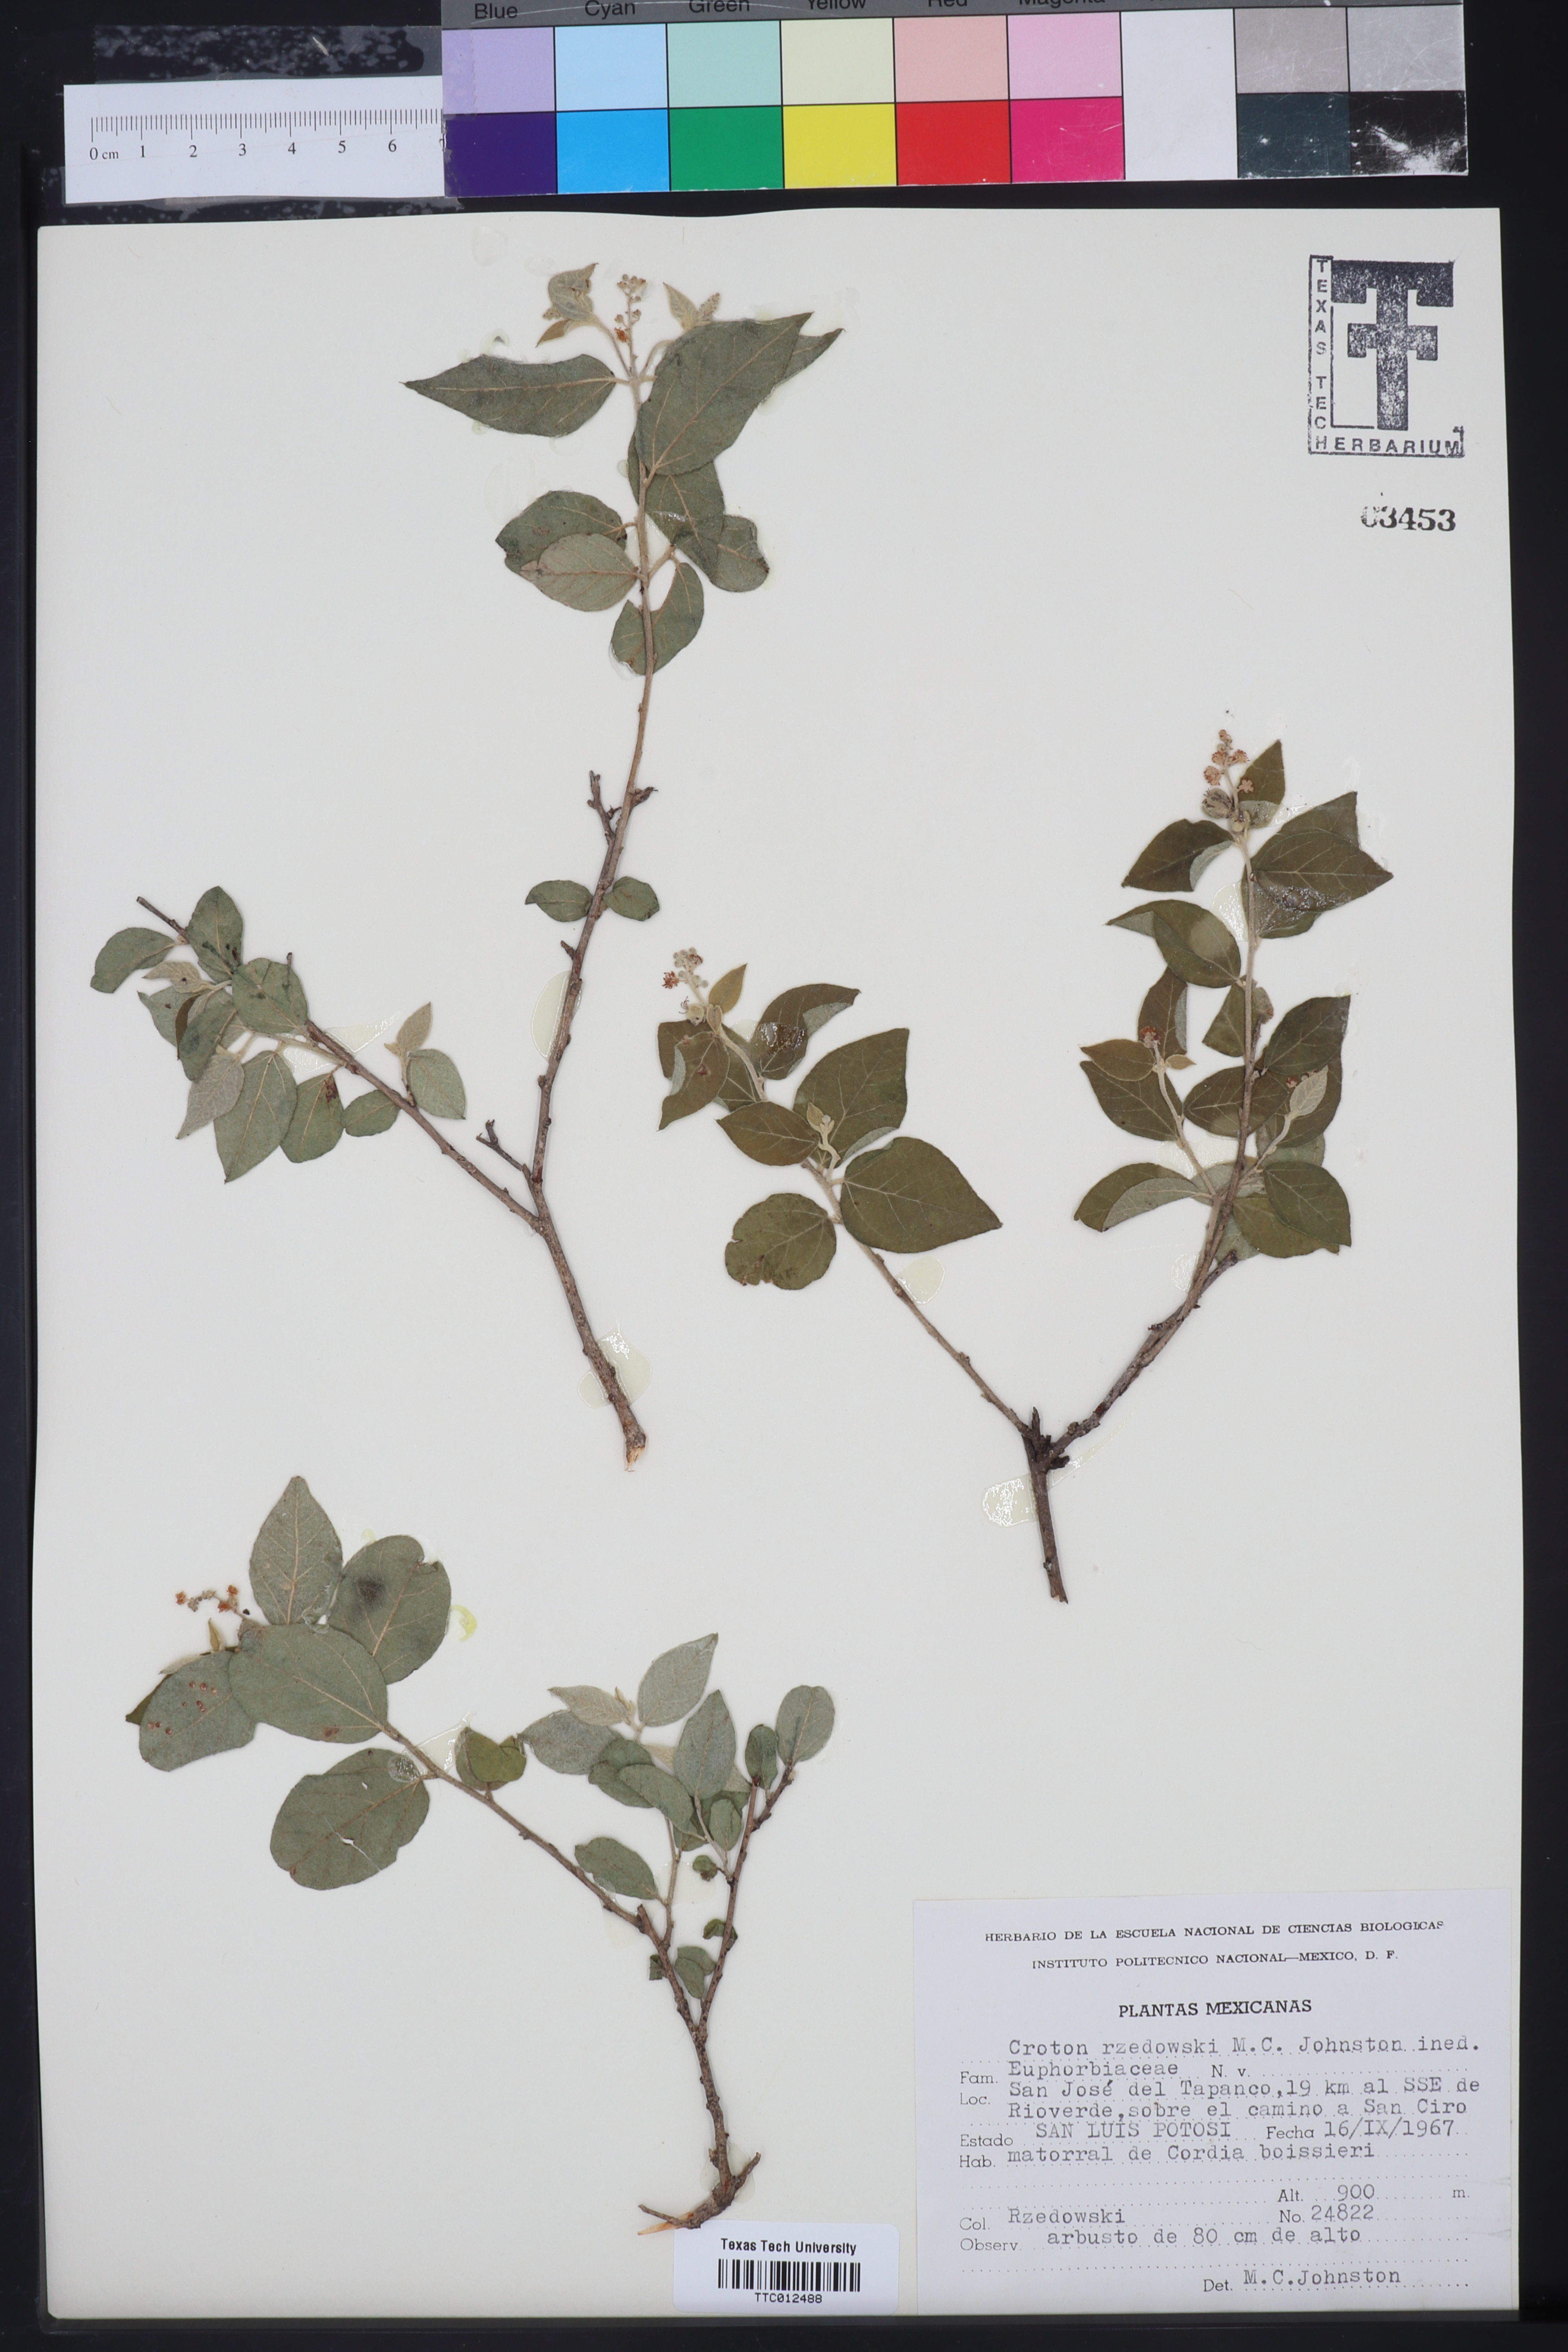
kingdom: Plantae
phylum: Tracheophyta
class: Magnoliopsida
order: Malpighiales
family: Euphorbiaceae
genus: Croton
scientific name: Croton
